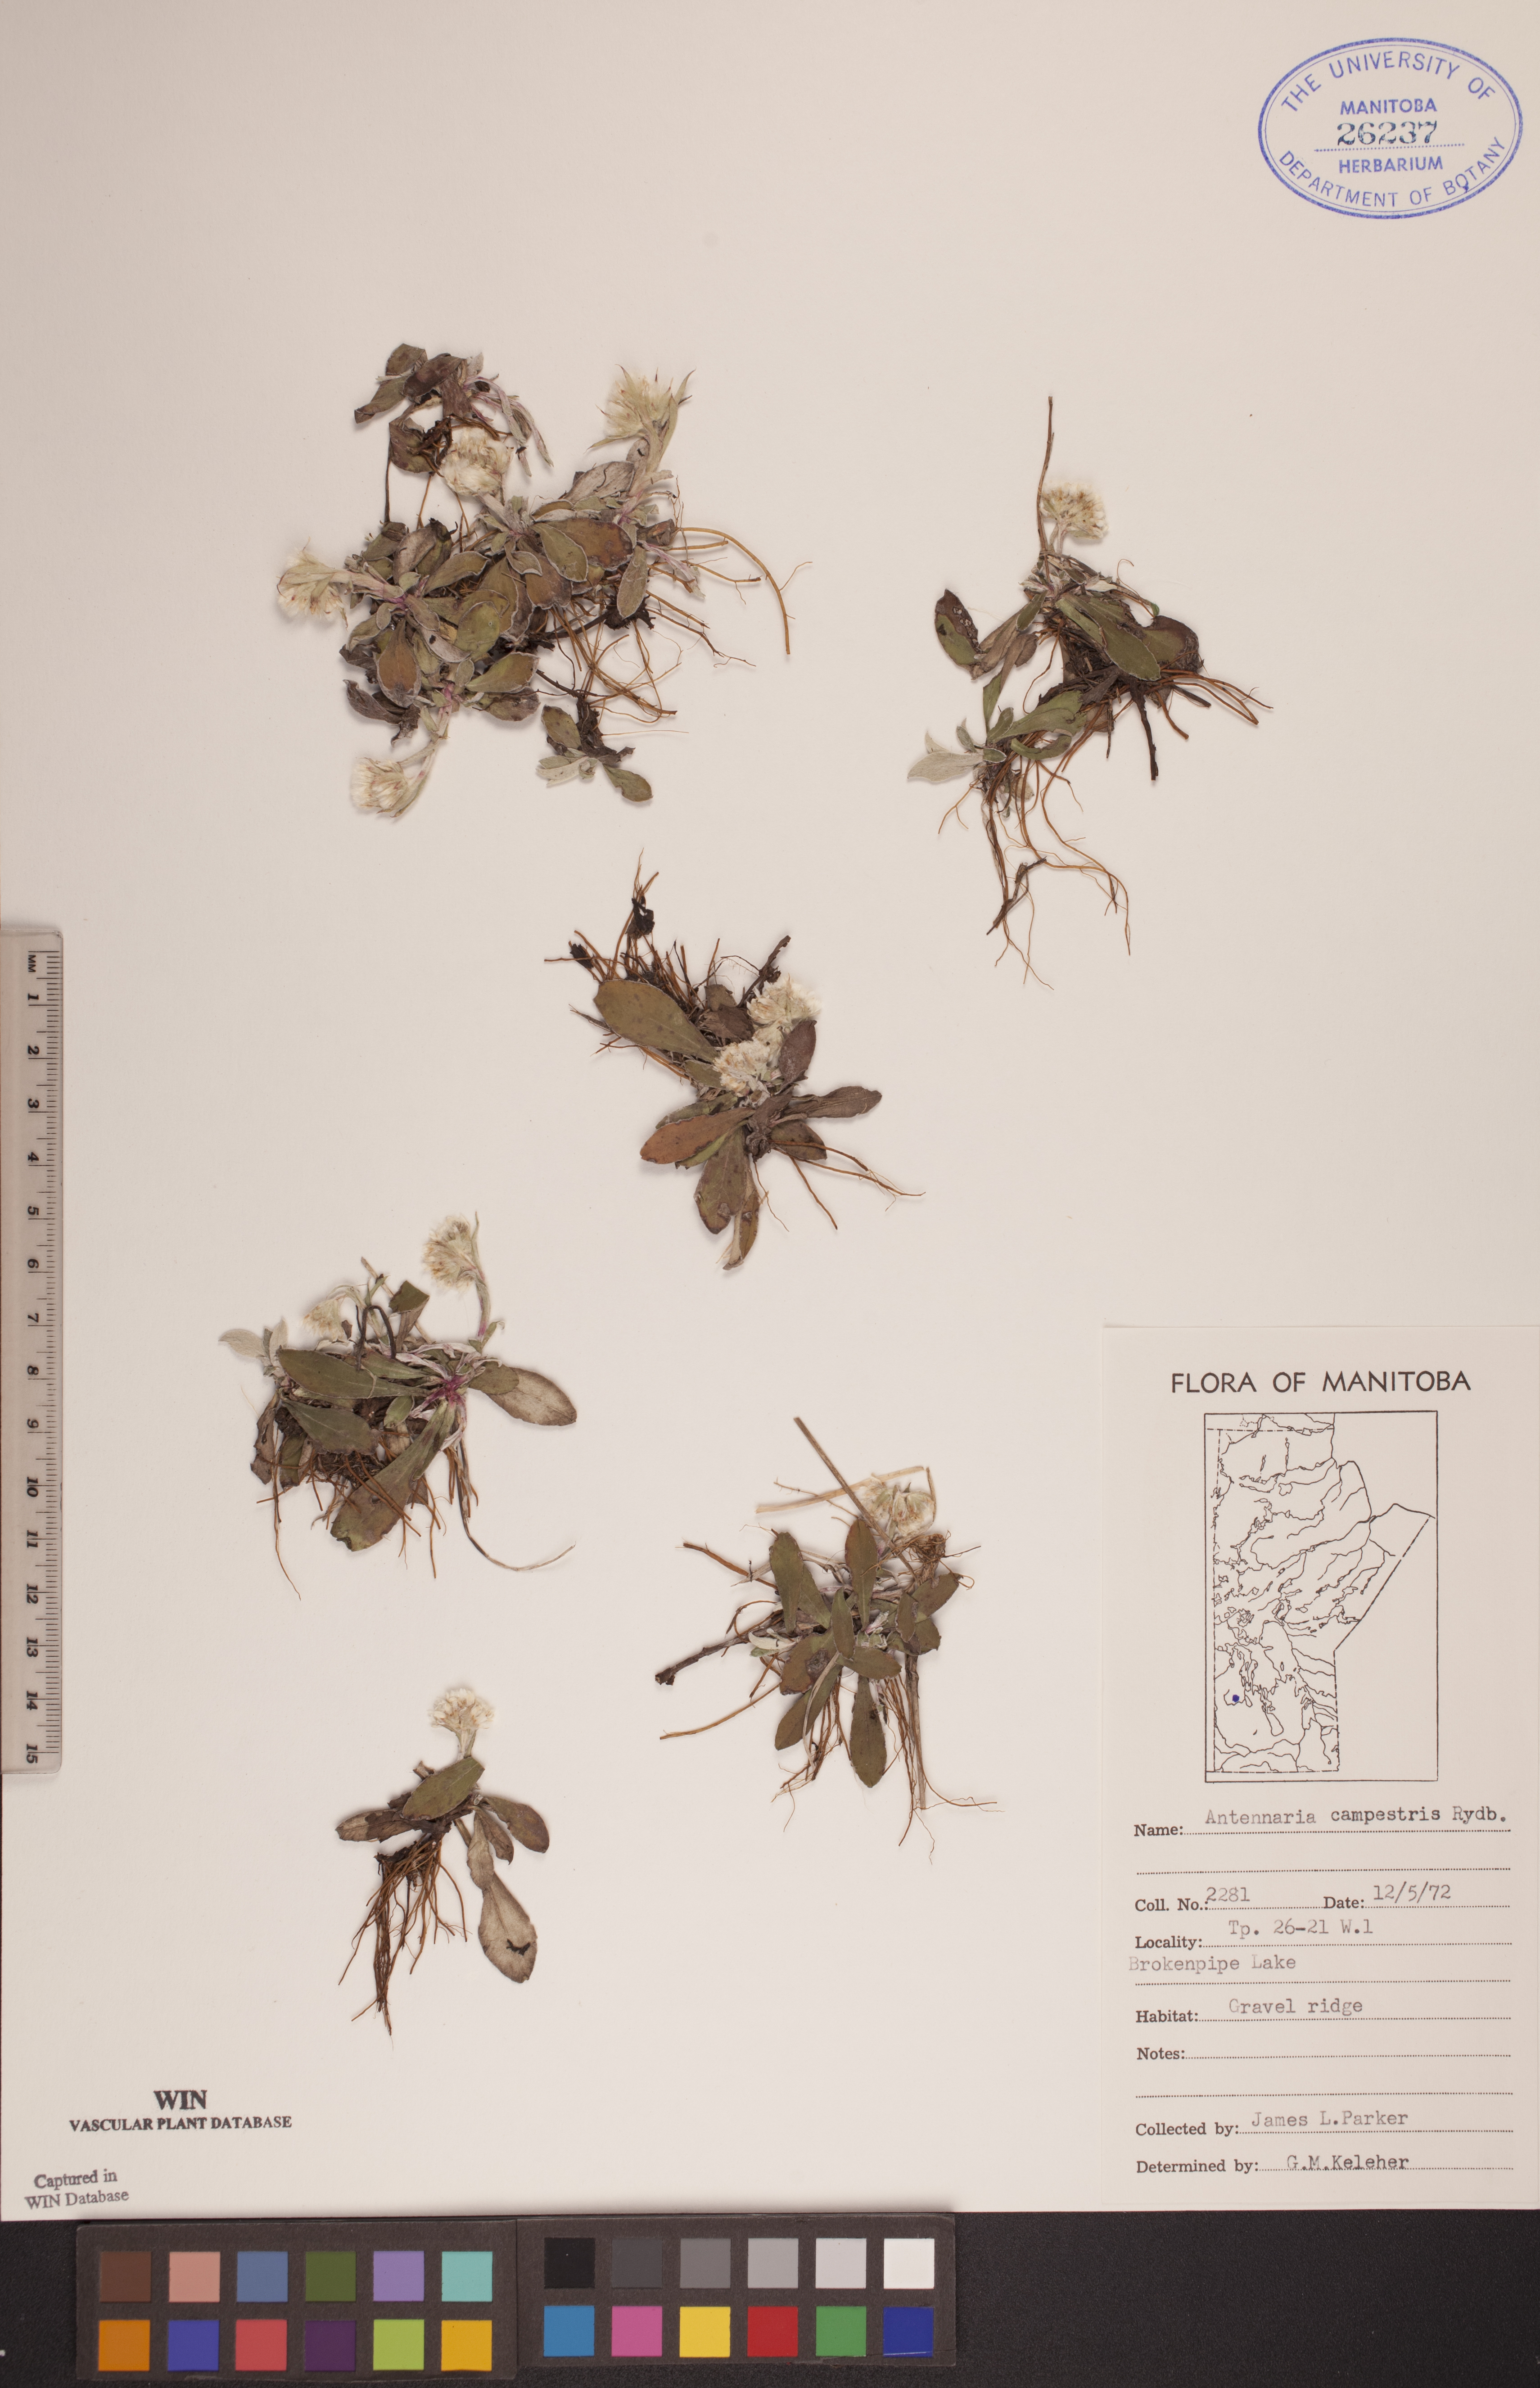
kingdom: Plantae
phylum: Tracheophyta
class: Magnoliopsida
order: Asterales
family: Asteraceae
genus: Antennaria
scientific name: Antennaria neglecta
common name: Field pussytoes
